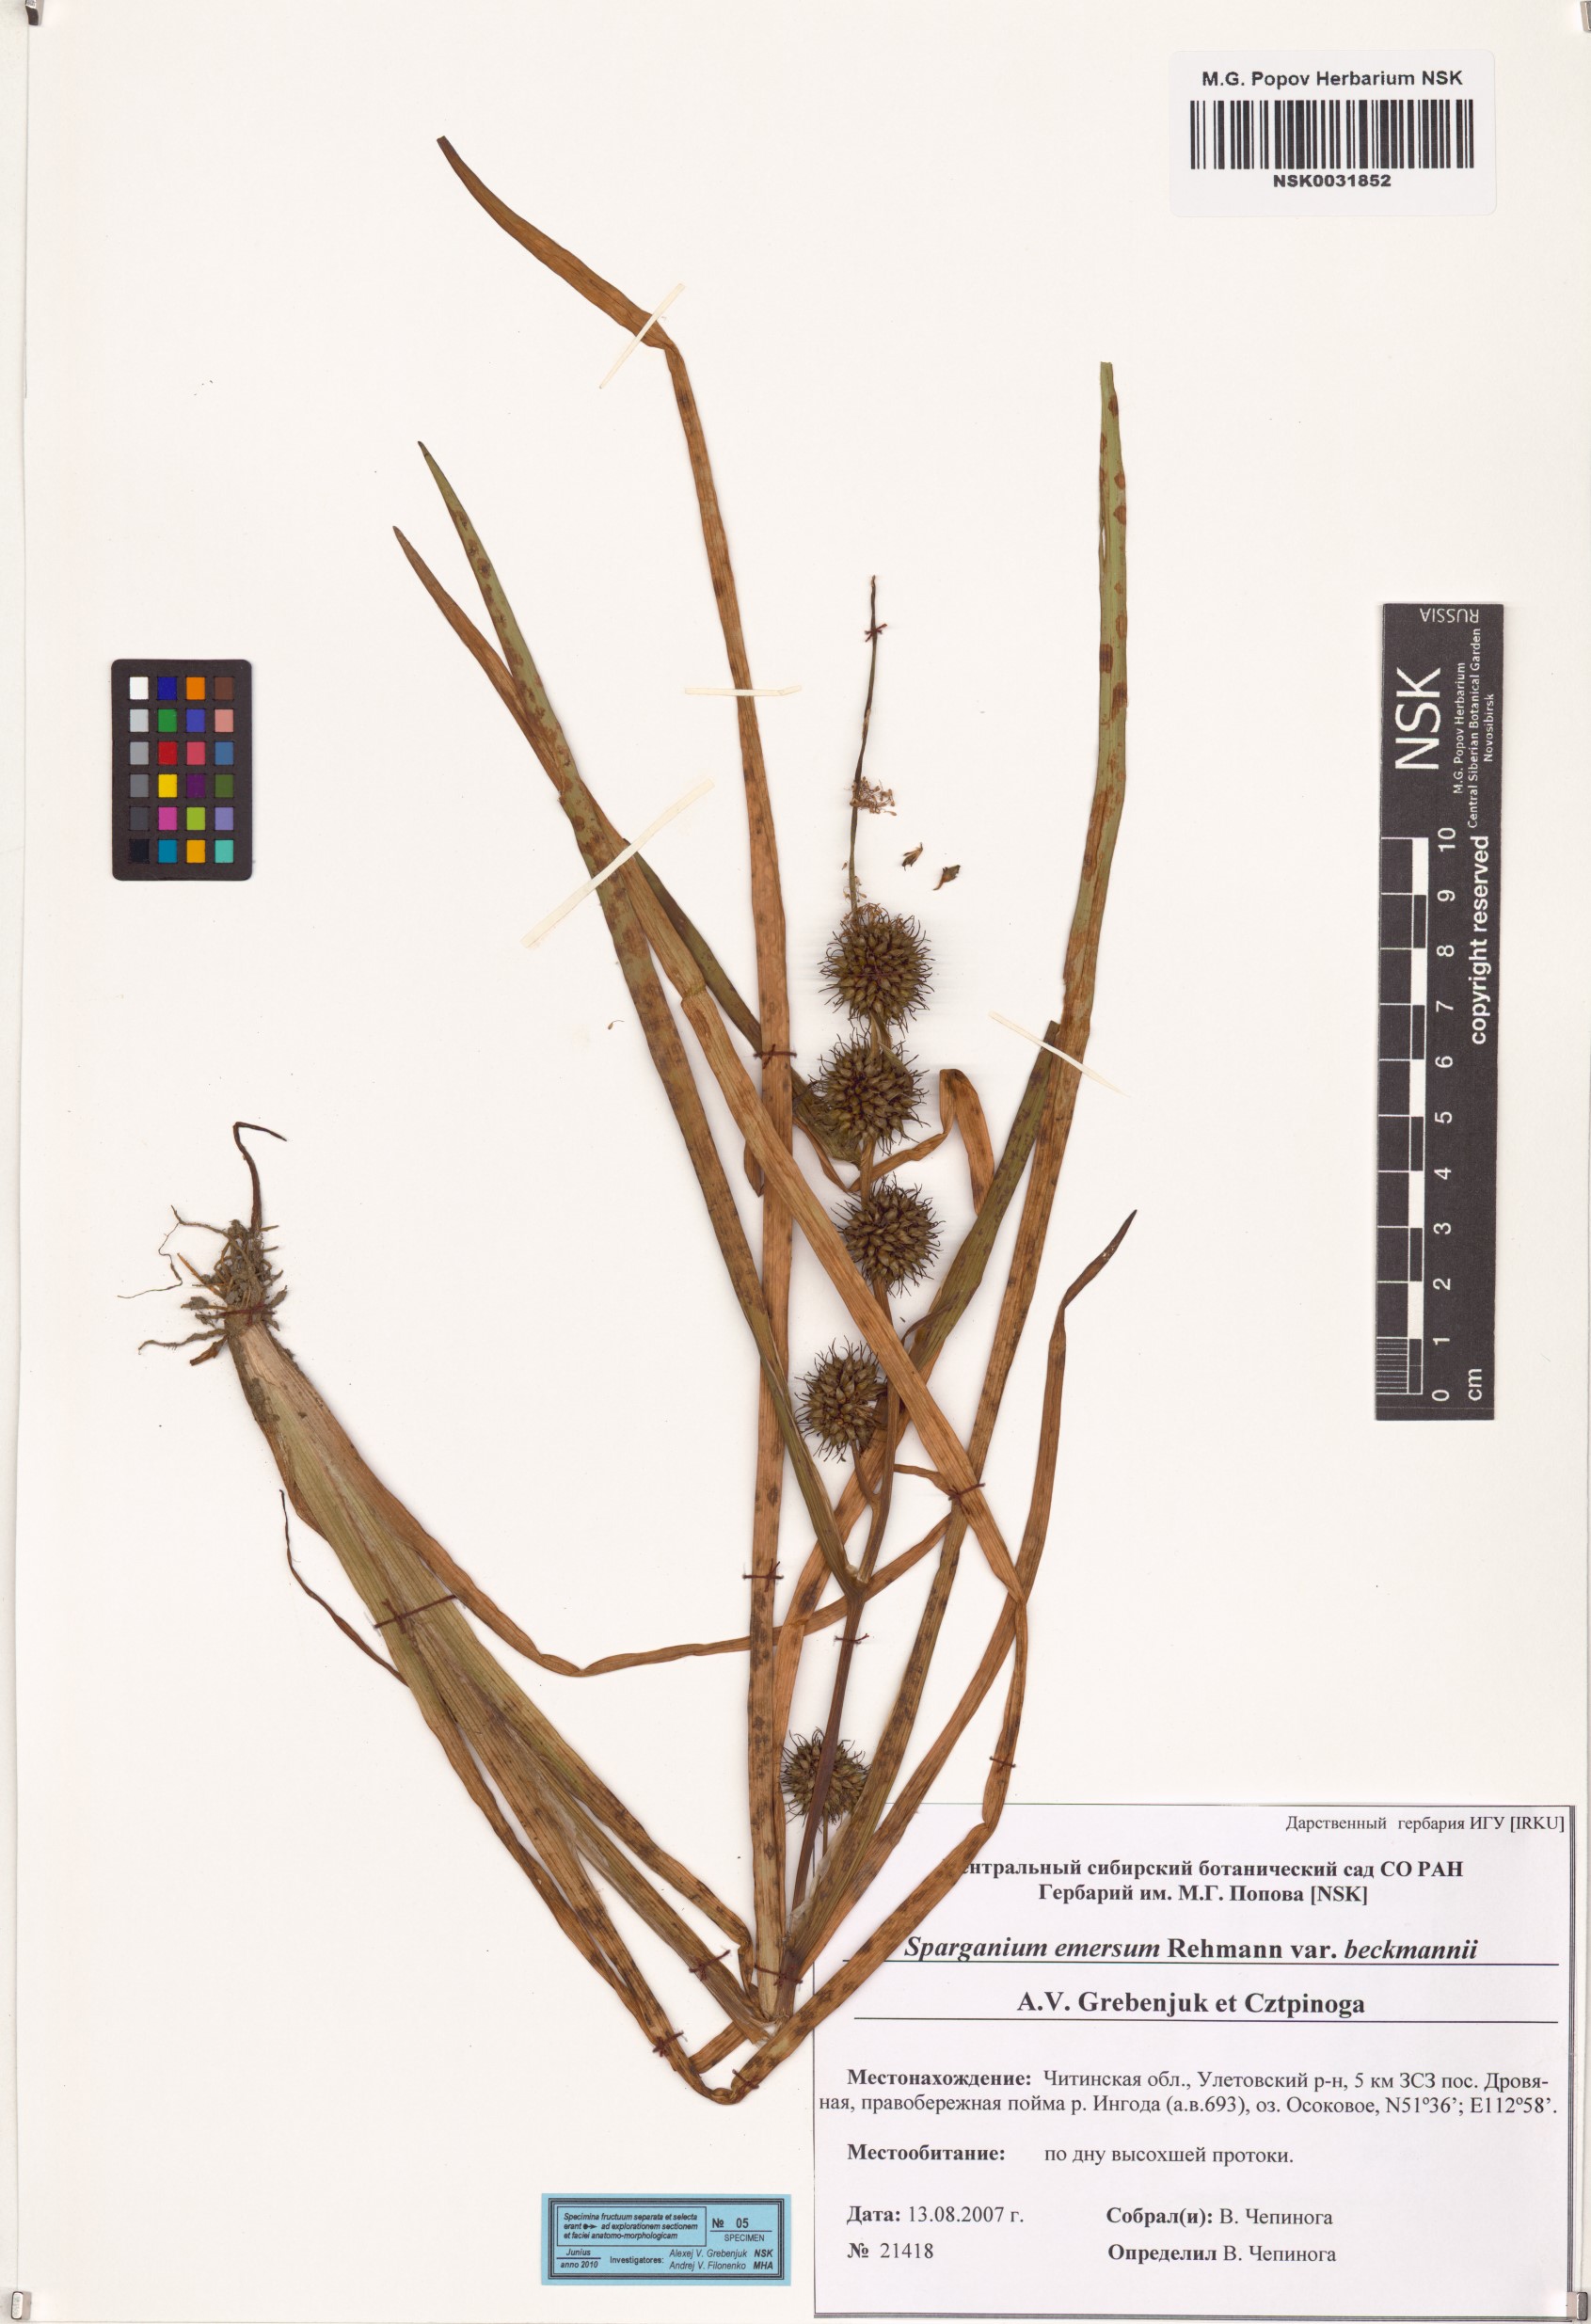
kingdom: Plantae
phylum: Tracheophyta
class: Liliopsida
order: Poales
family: Typhaceae
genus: Sparganium
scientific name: Sparganium emersum
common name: Unbranched bur-reed
